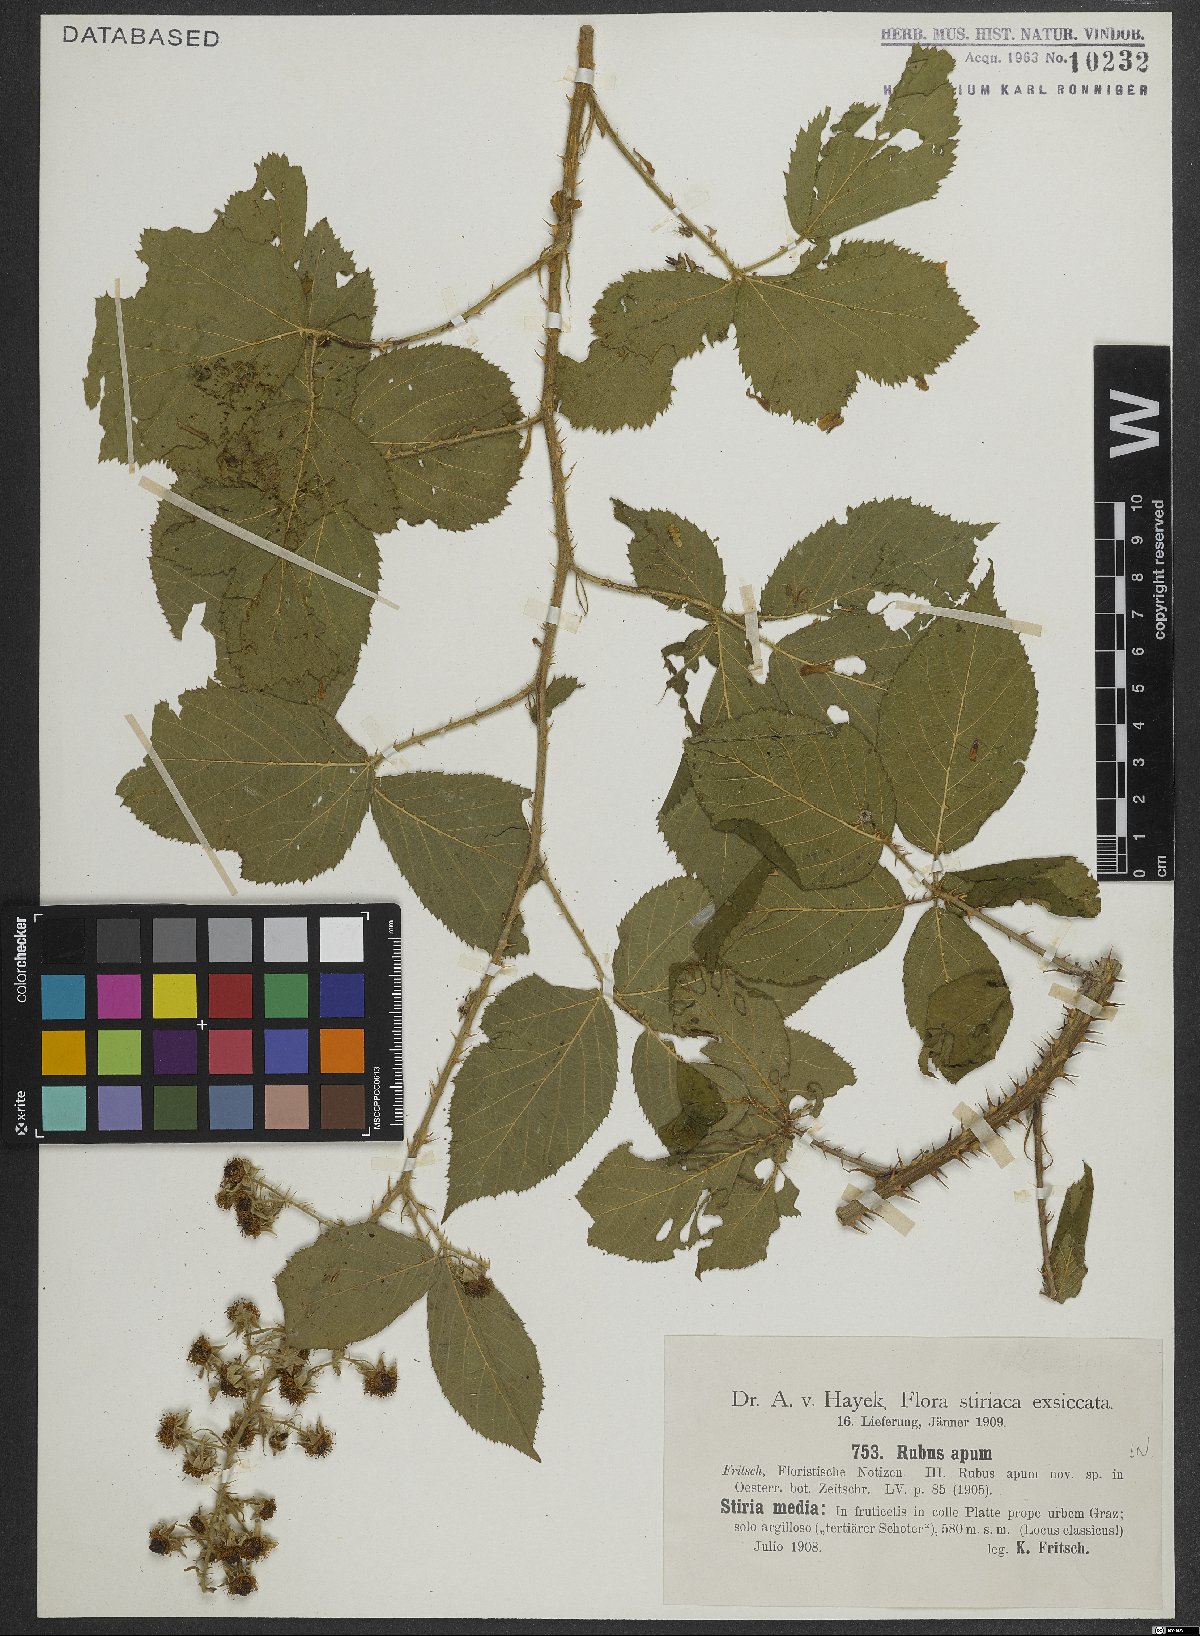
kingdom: Plantae
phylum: Tracheophyta
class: Magnoliopsida
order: Rosales
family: Rosaceae
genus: Rubus
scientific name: Rubus ferox
